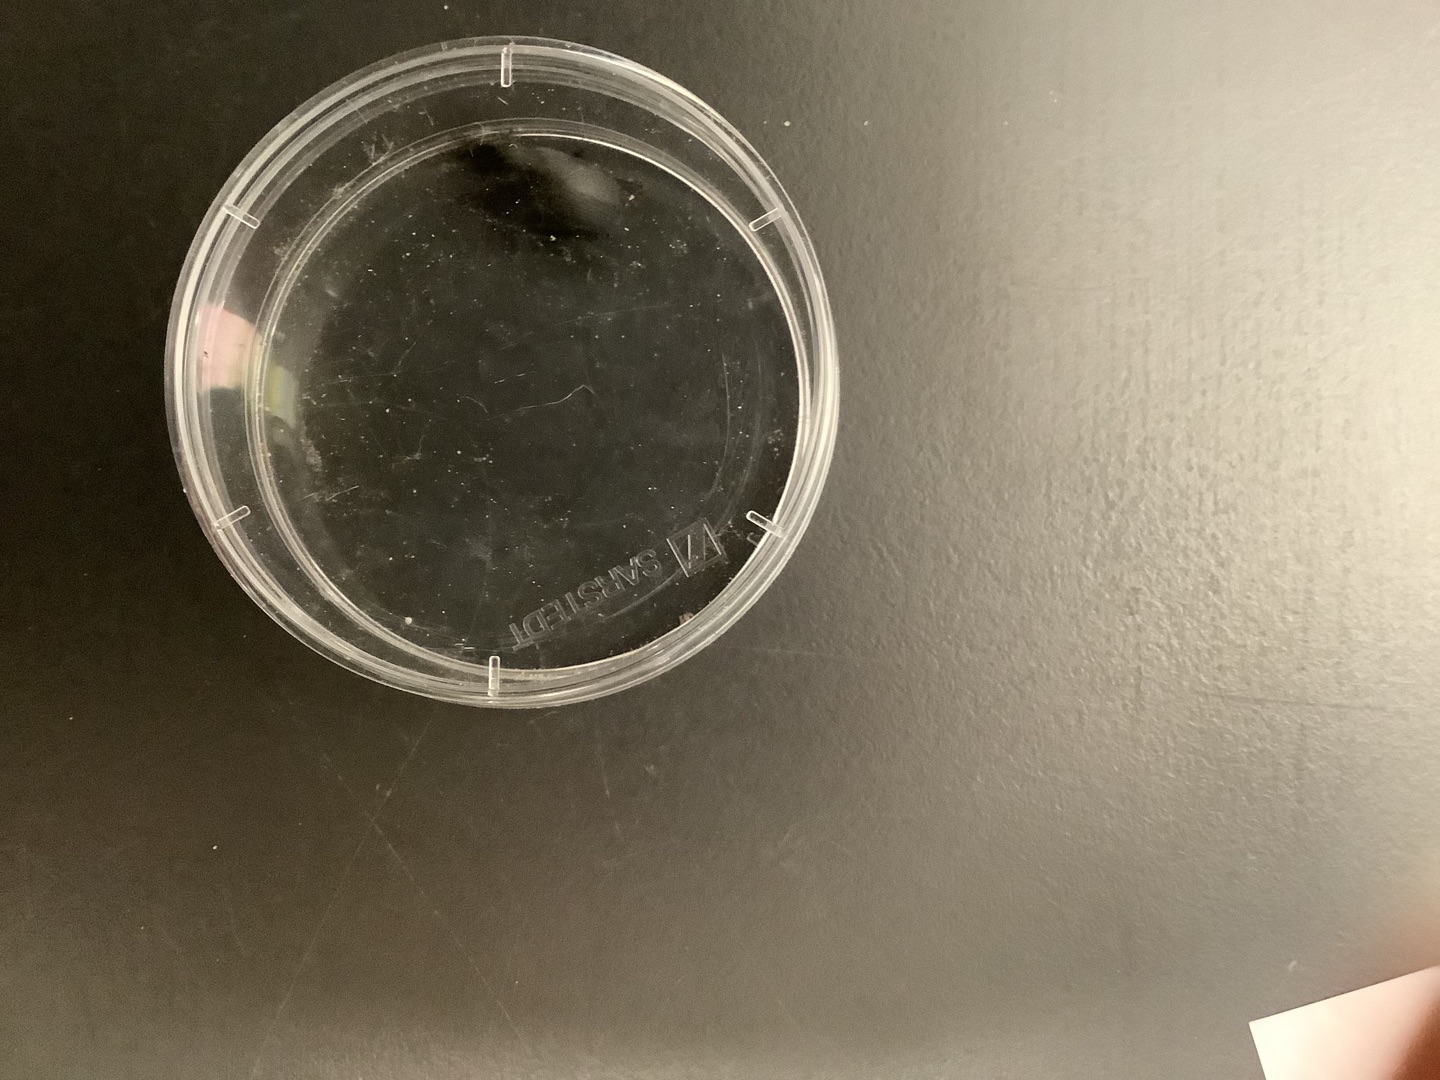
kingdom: Animalia
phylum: Arthropoda
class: Insecta
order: Coleoptera
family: Carabidae
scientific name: Carabidae
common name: Løbebiller
